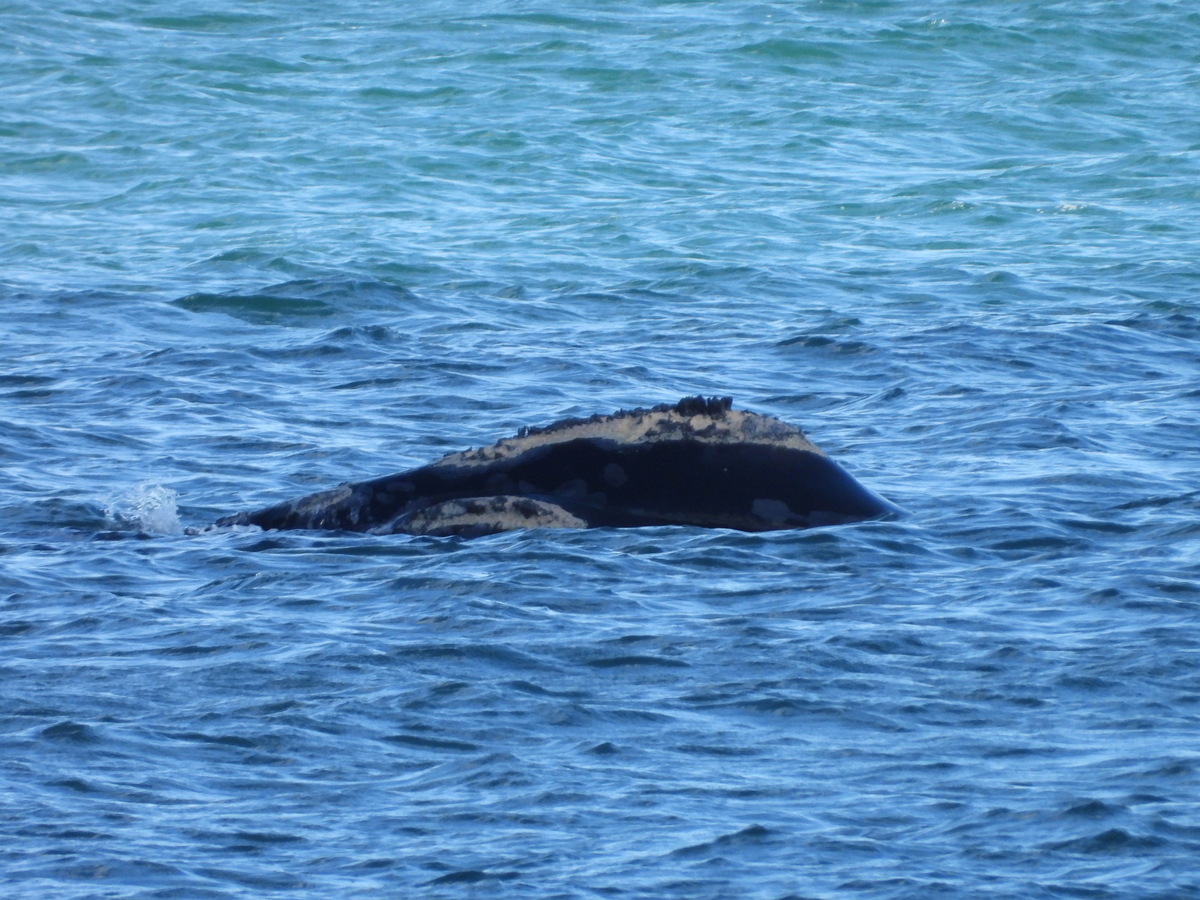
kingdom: Animalia
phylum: Chordata
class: Mammalia
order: Cetacea
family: Balaenidae
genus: Eubalaena
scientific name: Eubalaena glacialis
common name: North atlantic right whale
